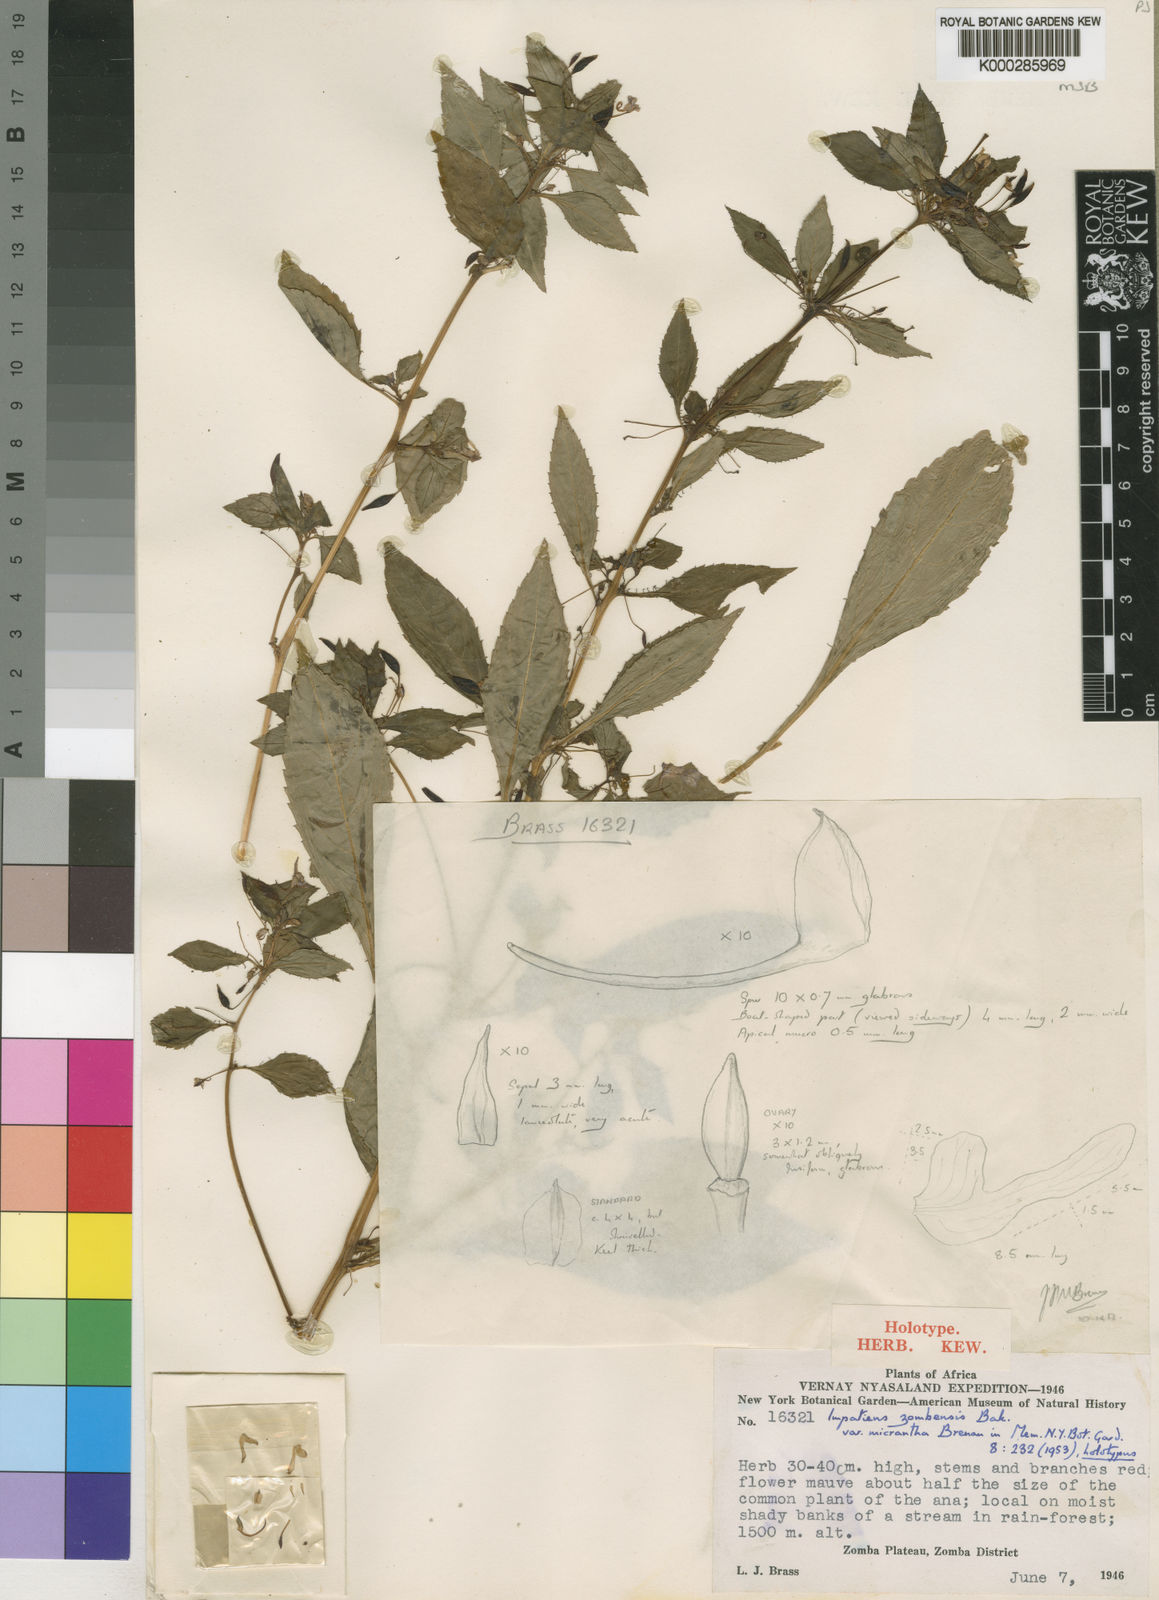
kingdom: Plantae
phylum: Tracheophyta
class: Magnoliopsida
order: Ericales
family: Balsaminaceae
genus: Impatiens
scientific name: Impatiens oreocallis
